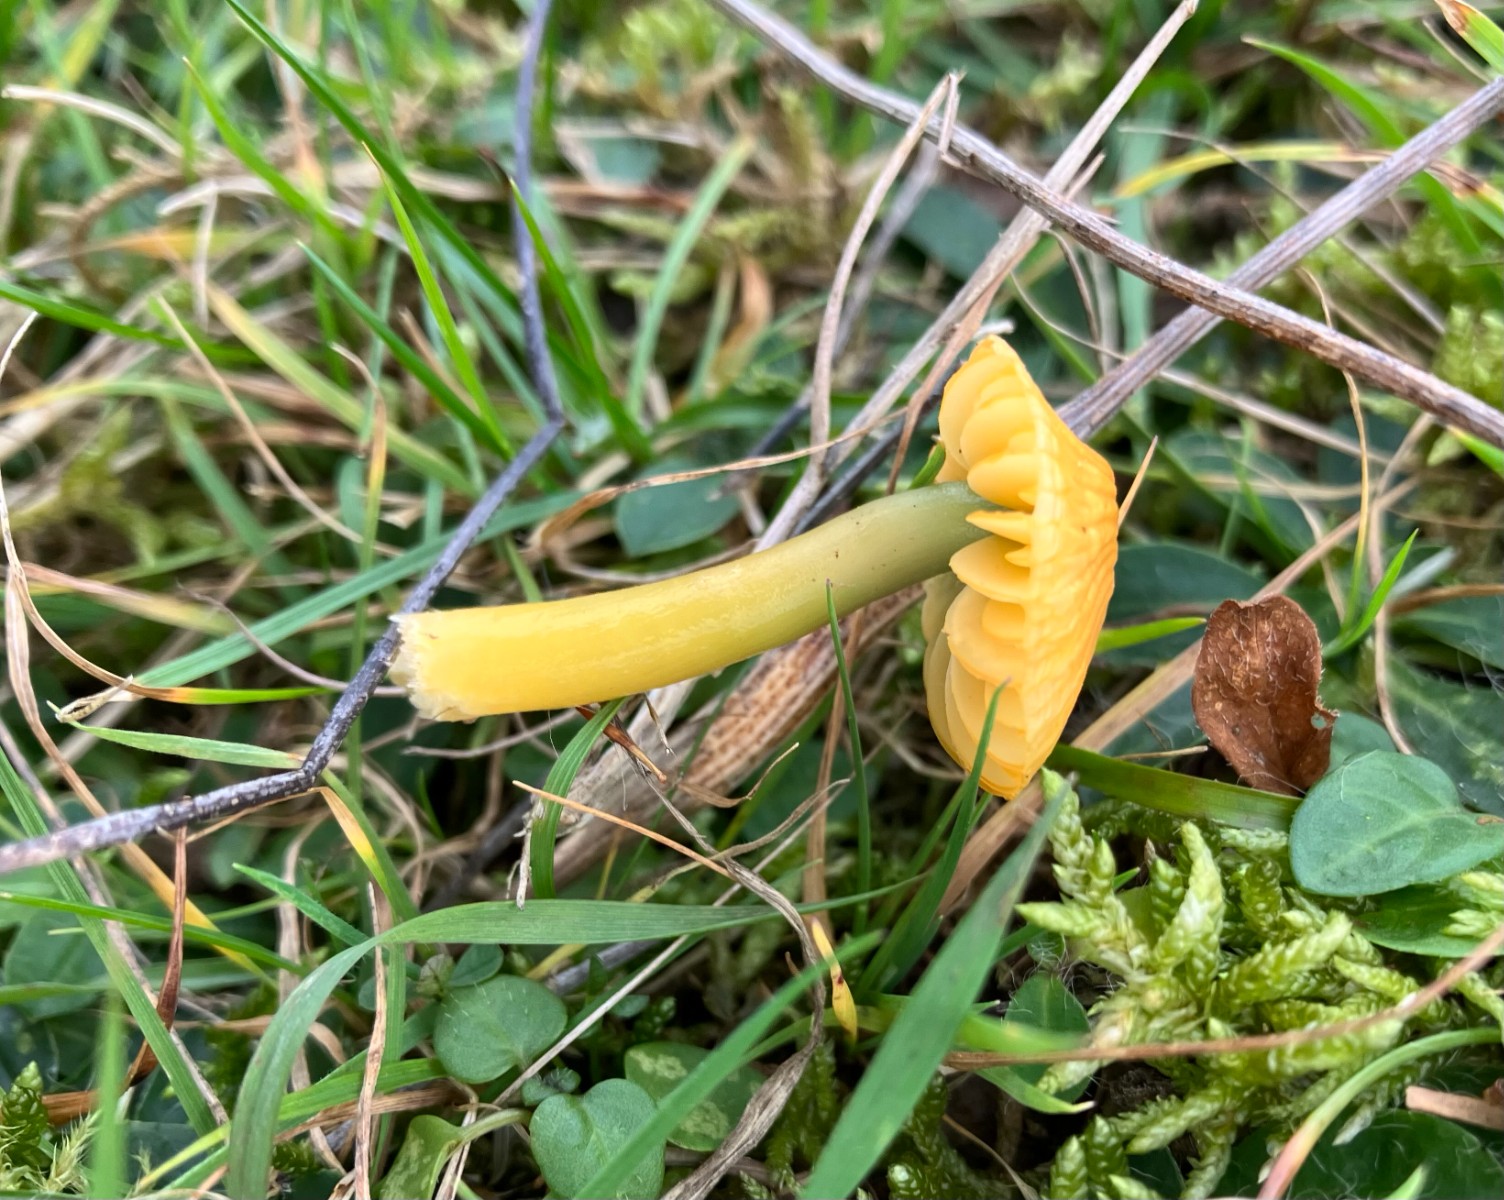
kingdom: Fungi
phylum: Basidiomycota
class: Agaricomycetes
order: Agaricales
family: Hygrophoraceae
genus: Gliophorus
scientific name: Gliophorus psittacinus
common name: papegøje-vokshat
